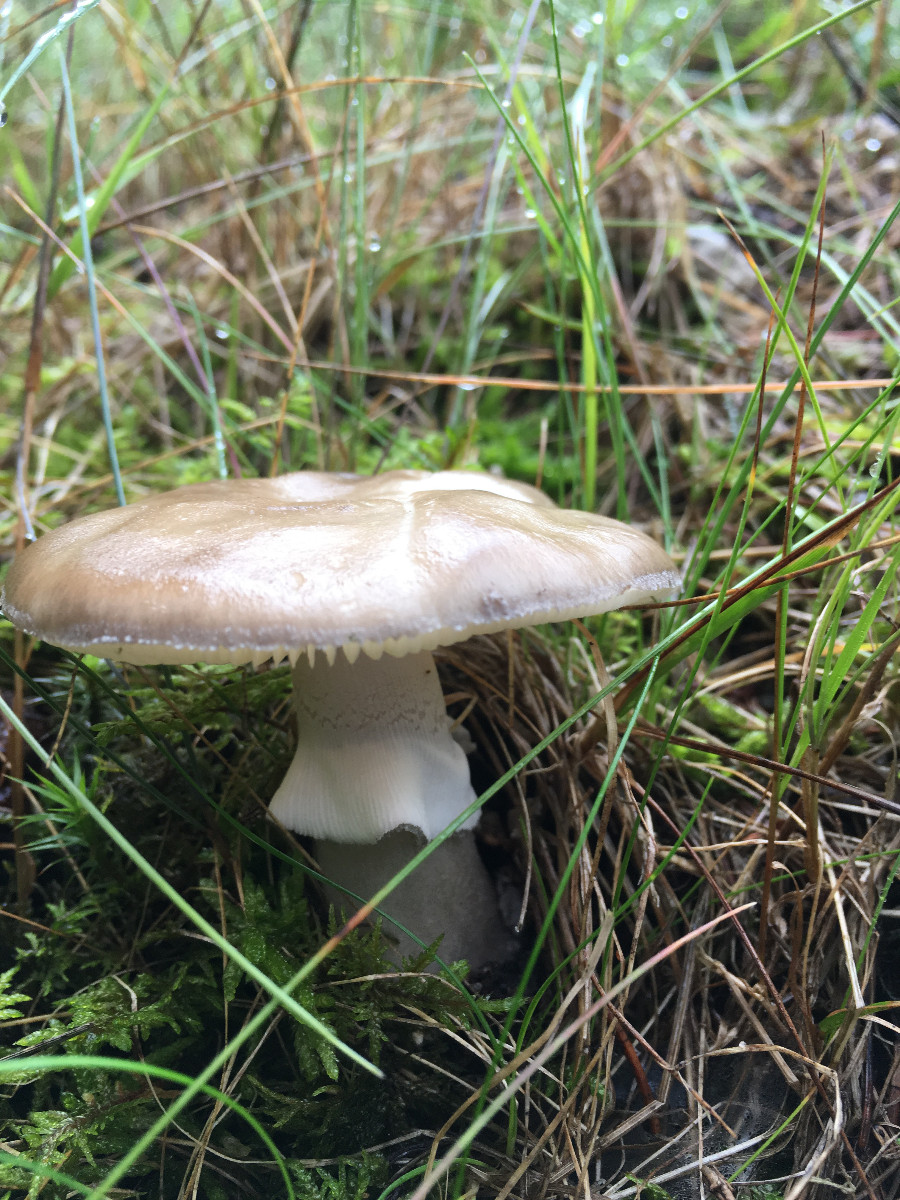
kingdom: Fungi
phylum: Basidiomycota
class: Agaricomycetes
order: Agaricales
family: Amanitaceae
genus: Amanita
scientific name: Amanita
